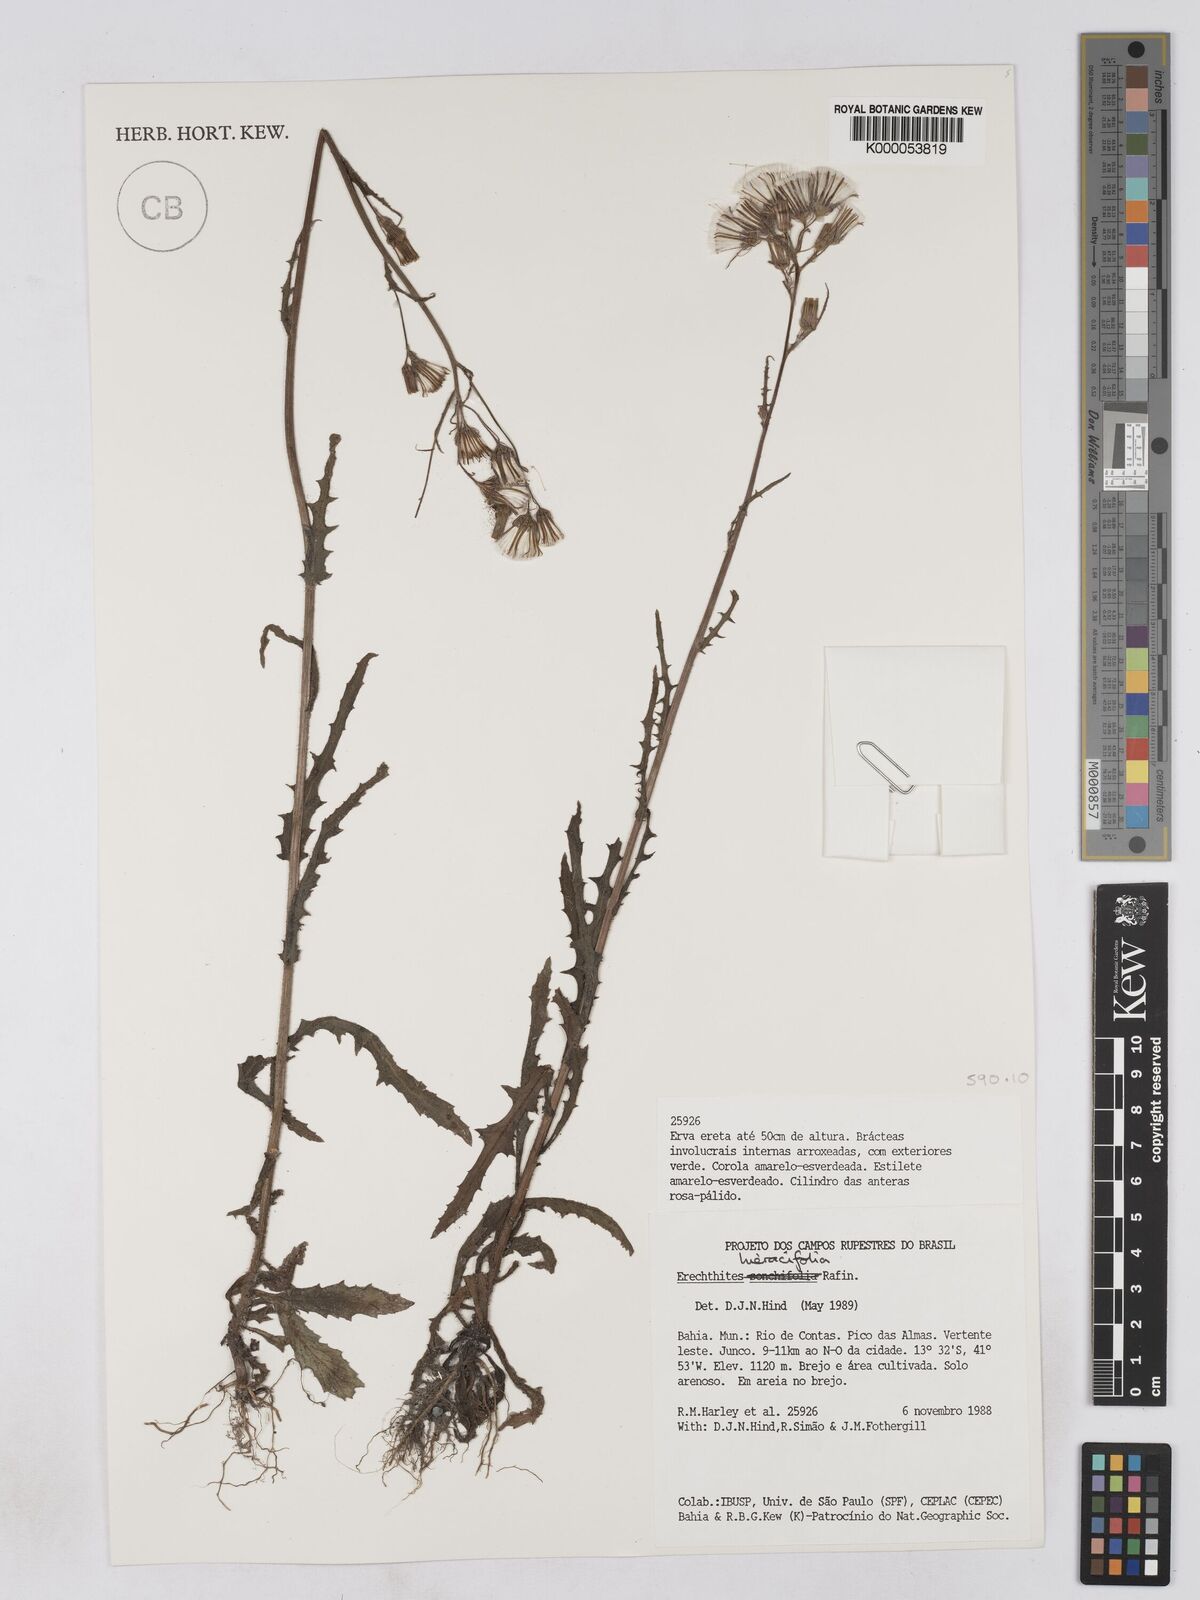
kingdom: Plantae
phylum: Tracheophyta
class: Magnoliopsida
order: Asterales
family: Asteraceae
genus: Erechtites
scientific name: Erechtites hieraciifolius
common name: American burnweed
